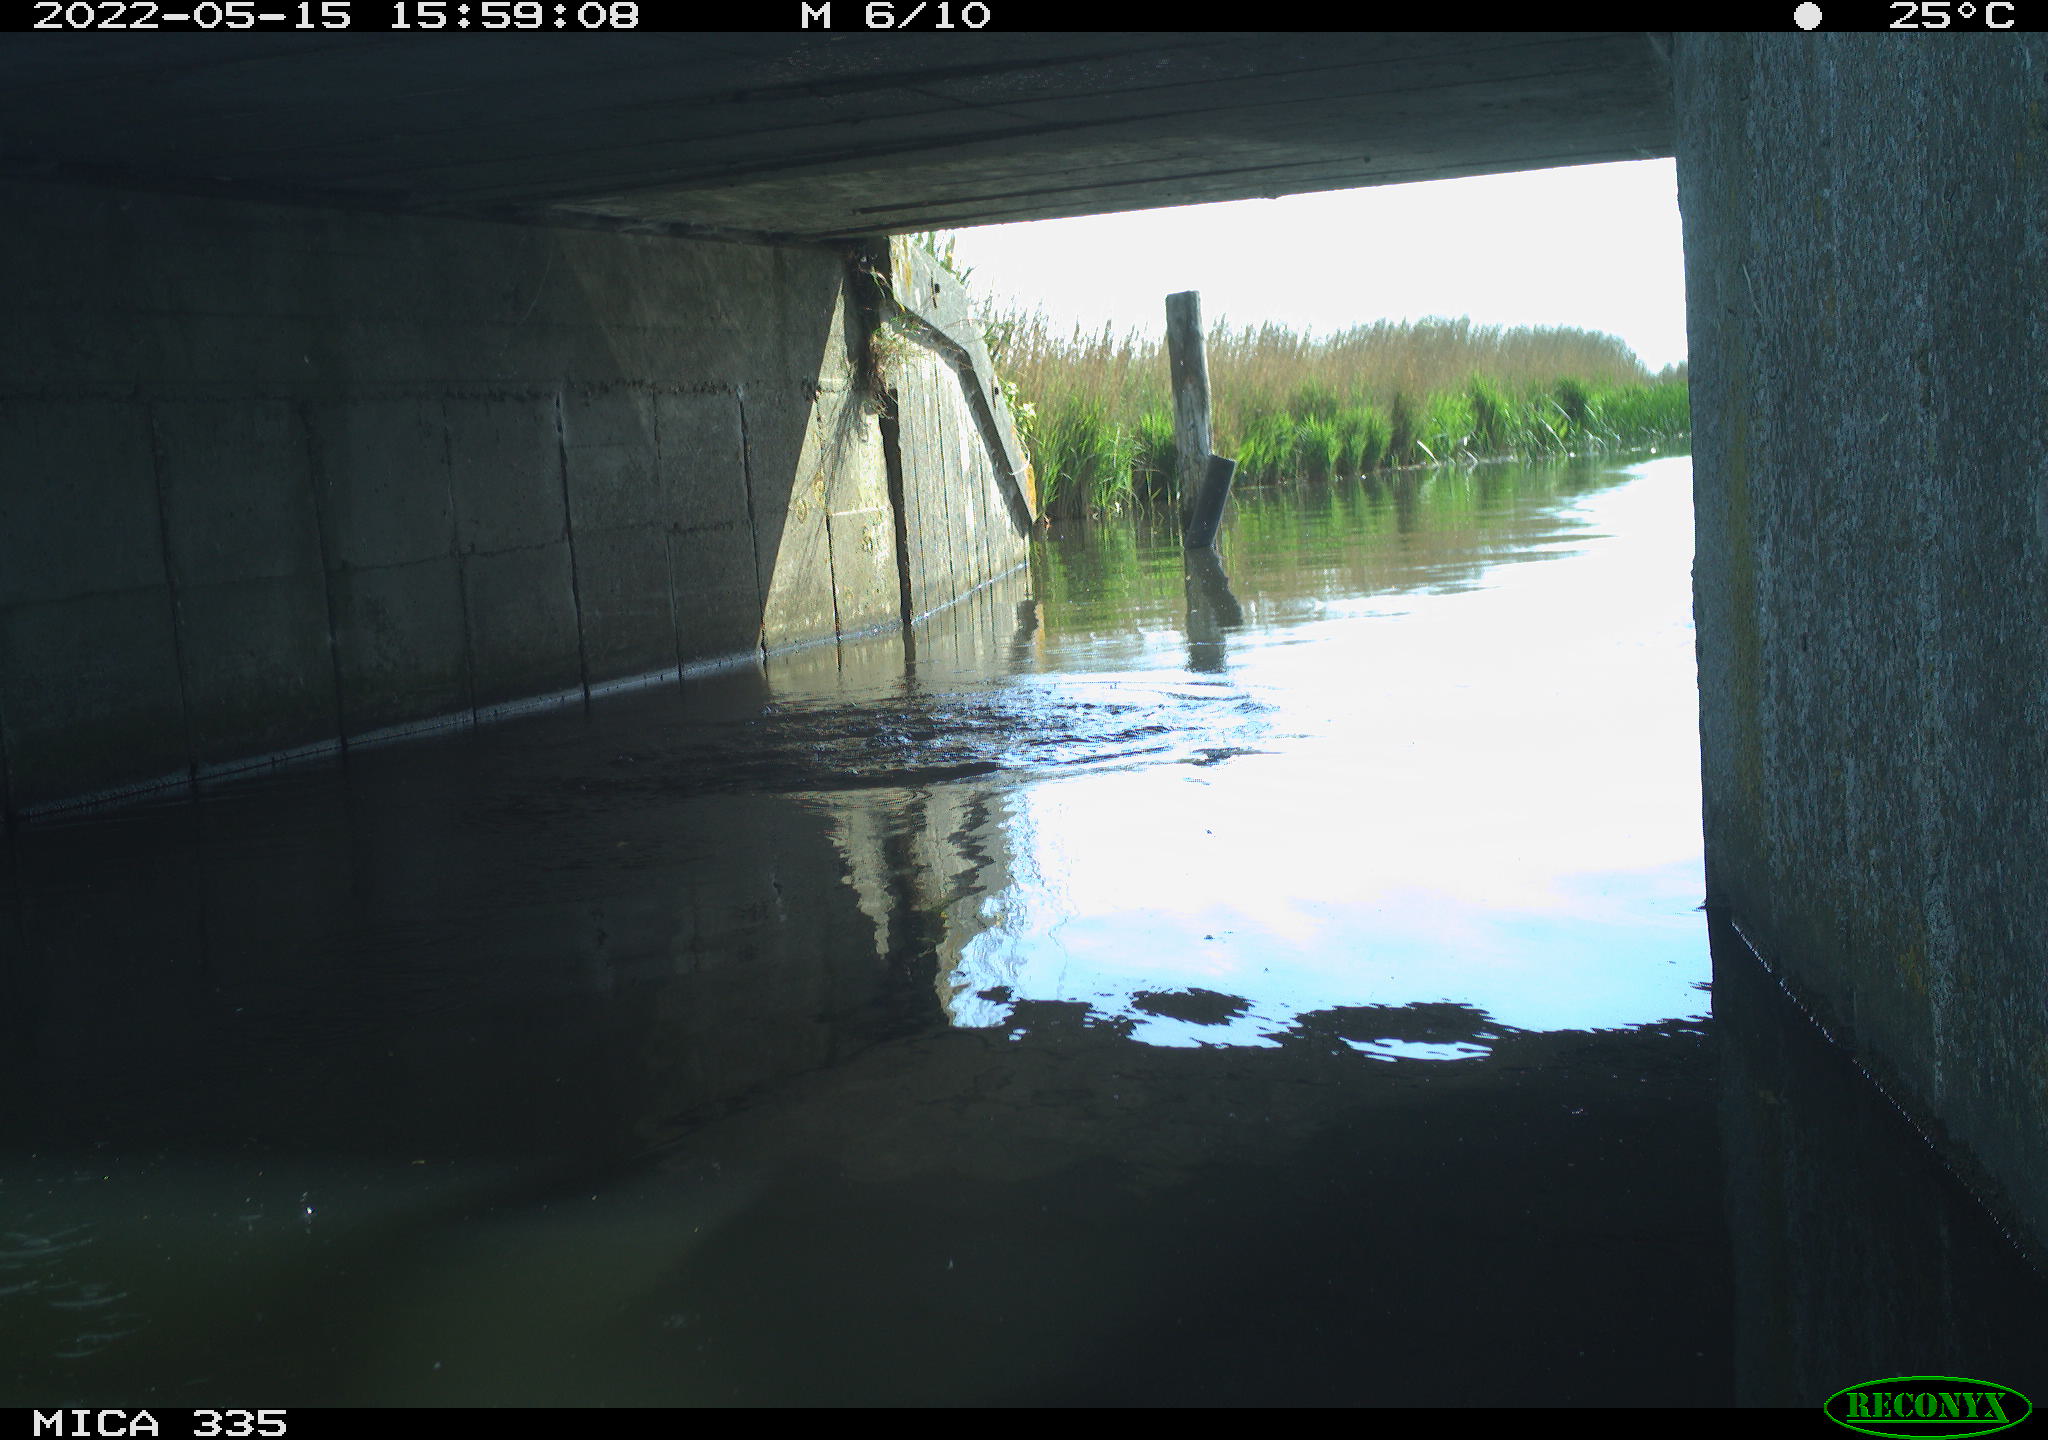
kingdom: Animalia
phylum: Chordata
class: Aves
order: Anseriformes
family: Anatidae
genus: Anas
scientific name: Anas platyrhynchos
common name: Mallard
